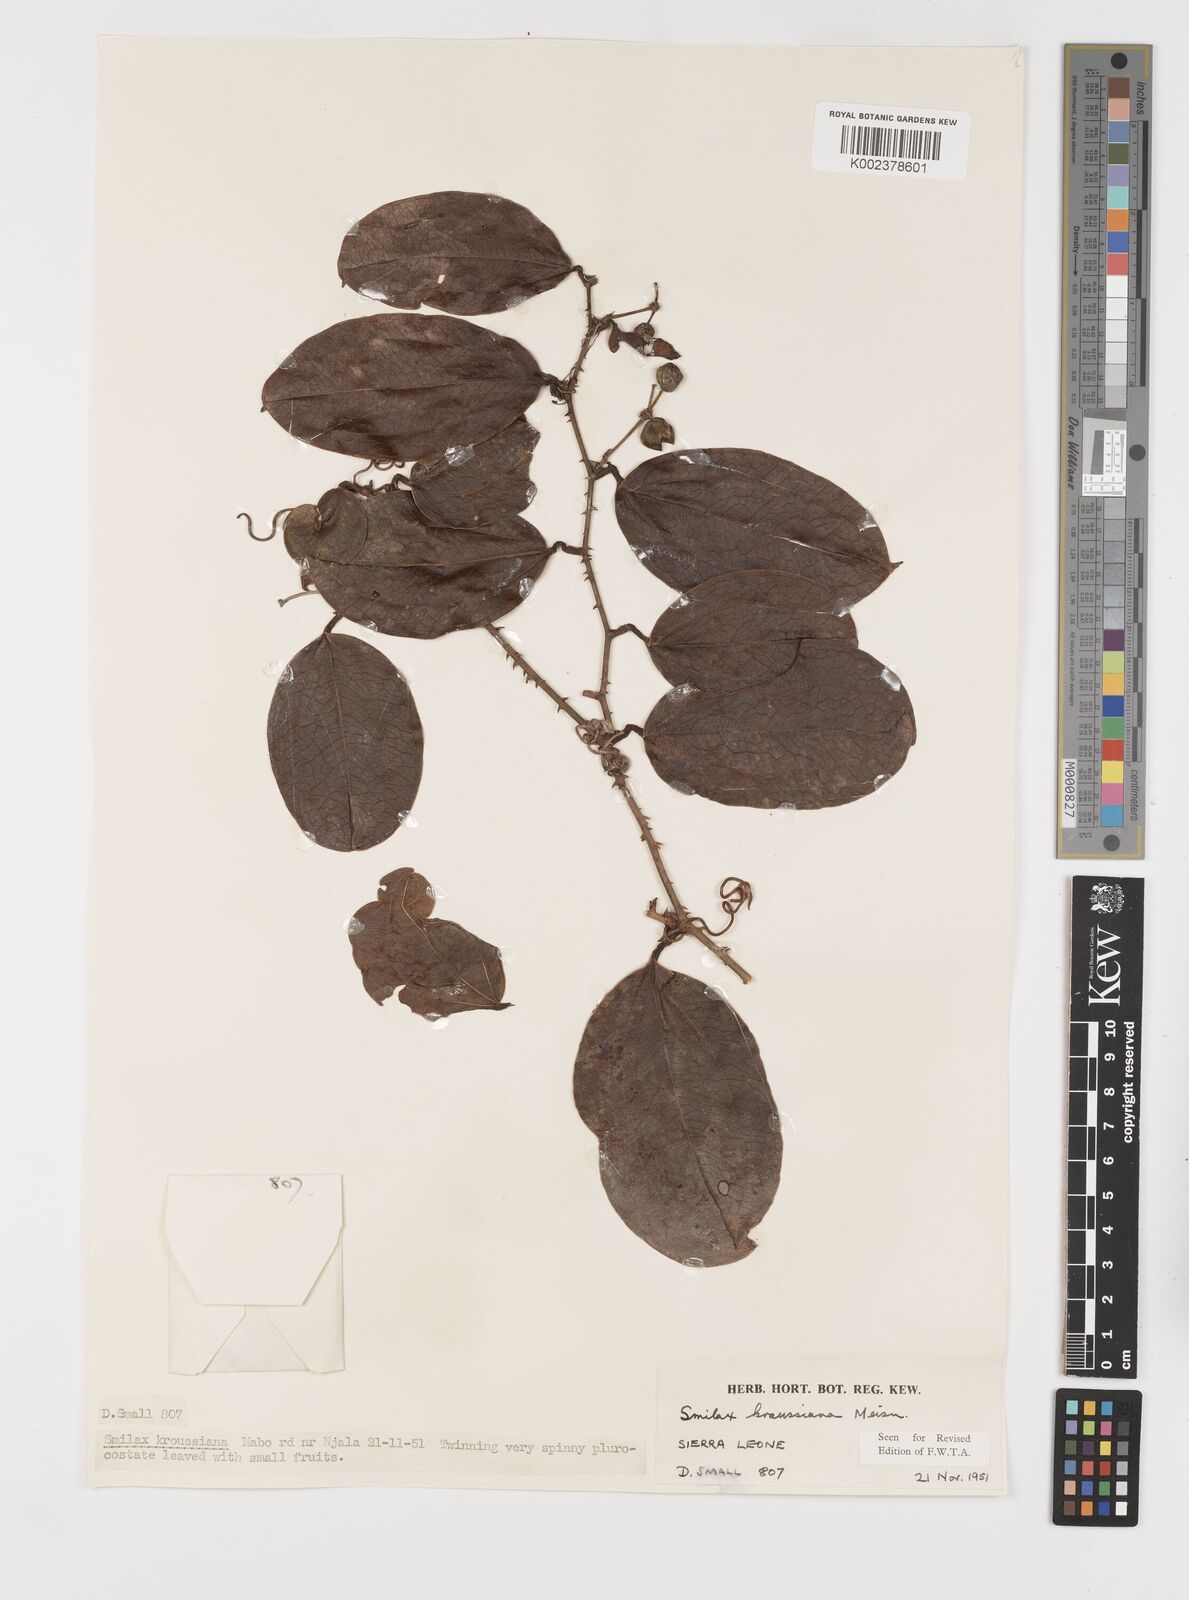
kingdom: Plantae
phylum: Tracheophyta
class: Liliopsida
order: Liliales
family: Smilacaceae
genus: Smilax
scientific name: Smilax anceps
